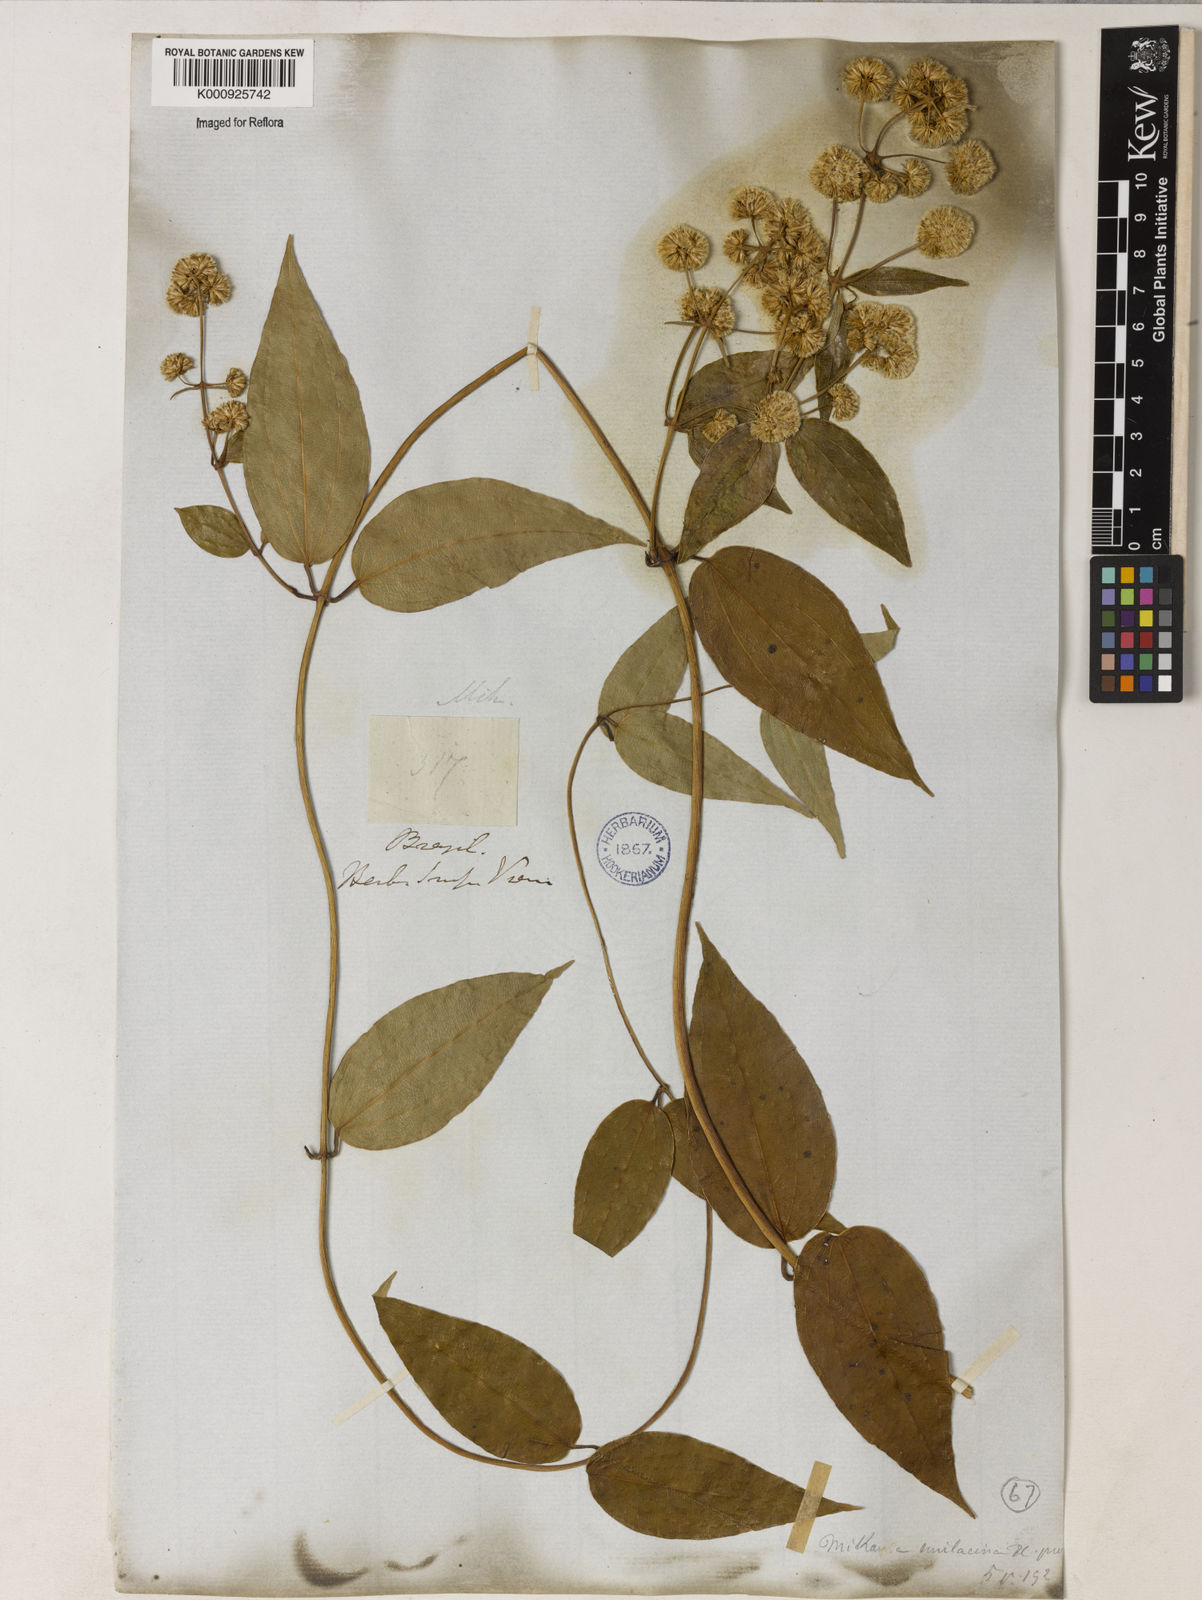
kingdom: Plantae
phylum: Tracheophyta
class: Magnoliopsida
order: Asterales
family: Asteraceae
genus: Mikania
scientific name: Mikania smilacina
